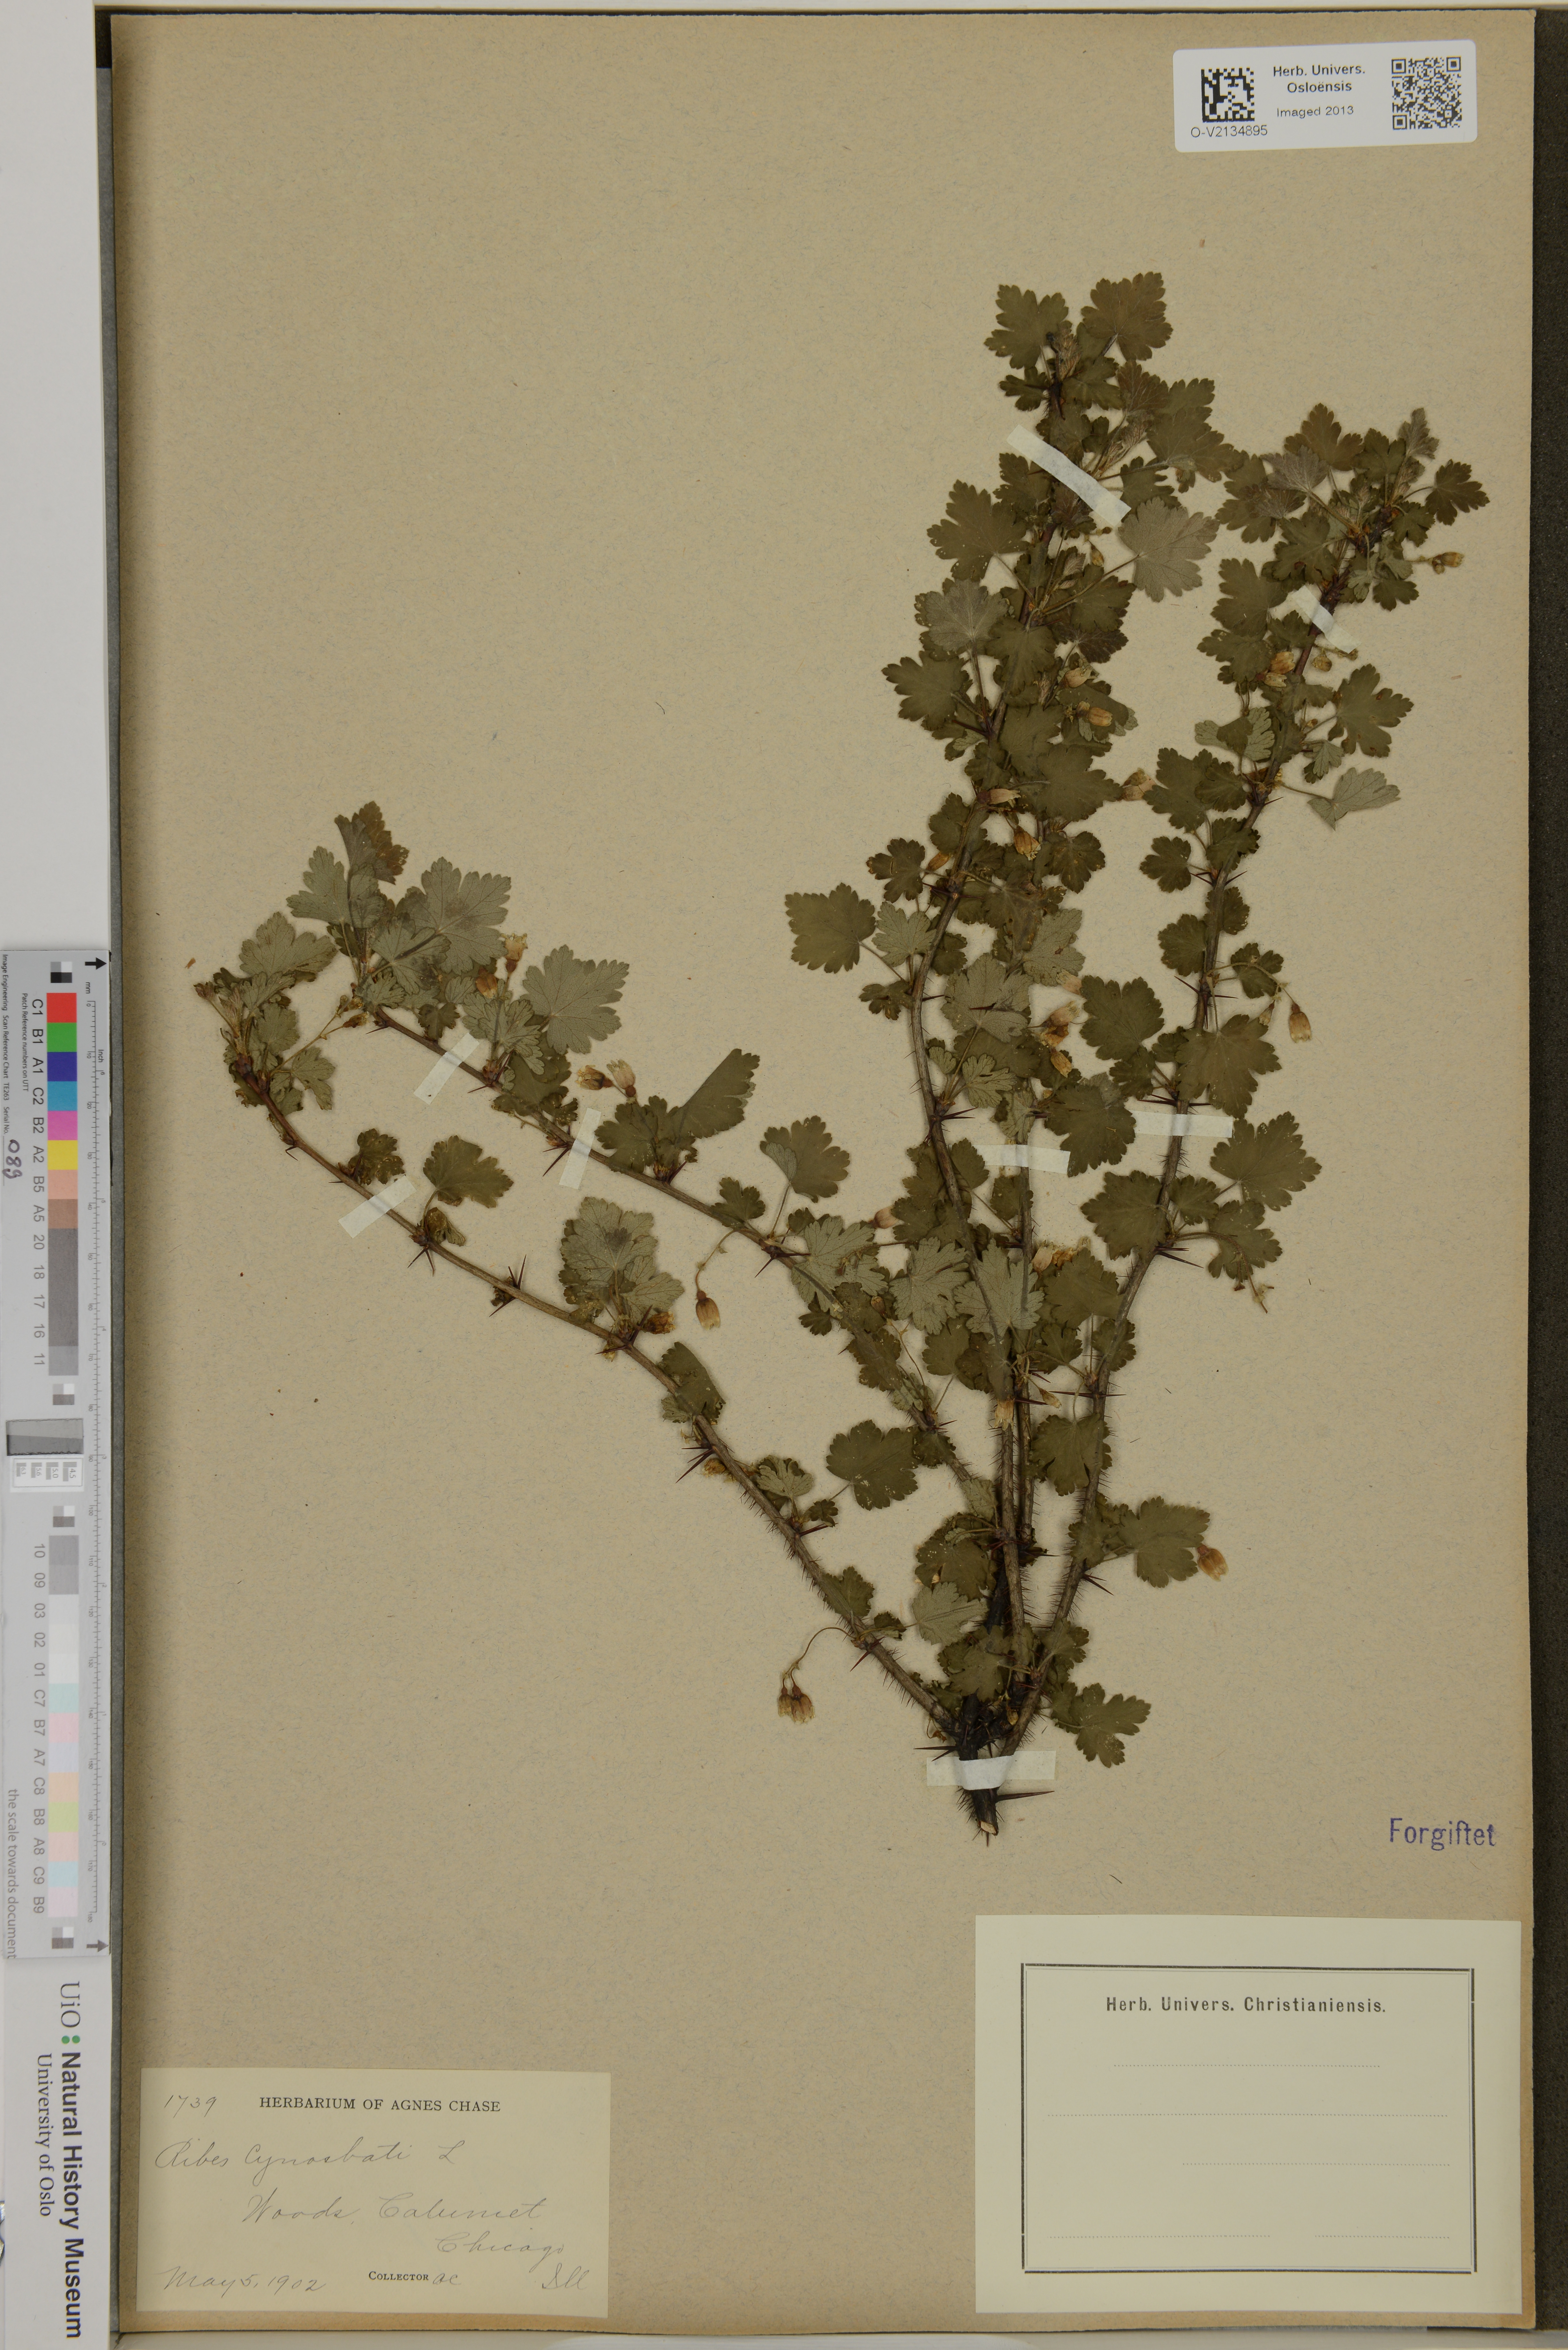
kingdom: Plantae
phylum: Tracheophyta
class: Magnoliopsida
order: Saxifragales
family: Grossulariaceae
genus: Ribes
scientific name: Ribes cynosbati
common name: American gooseberry
